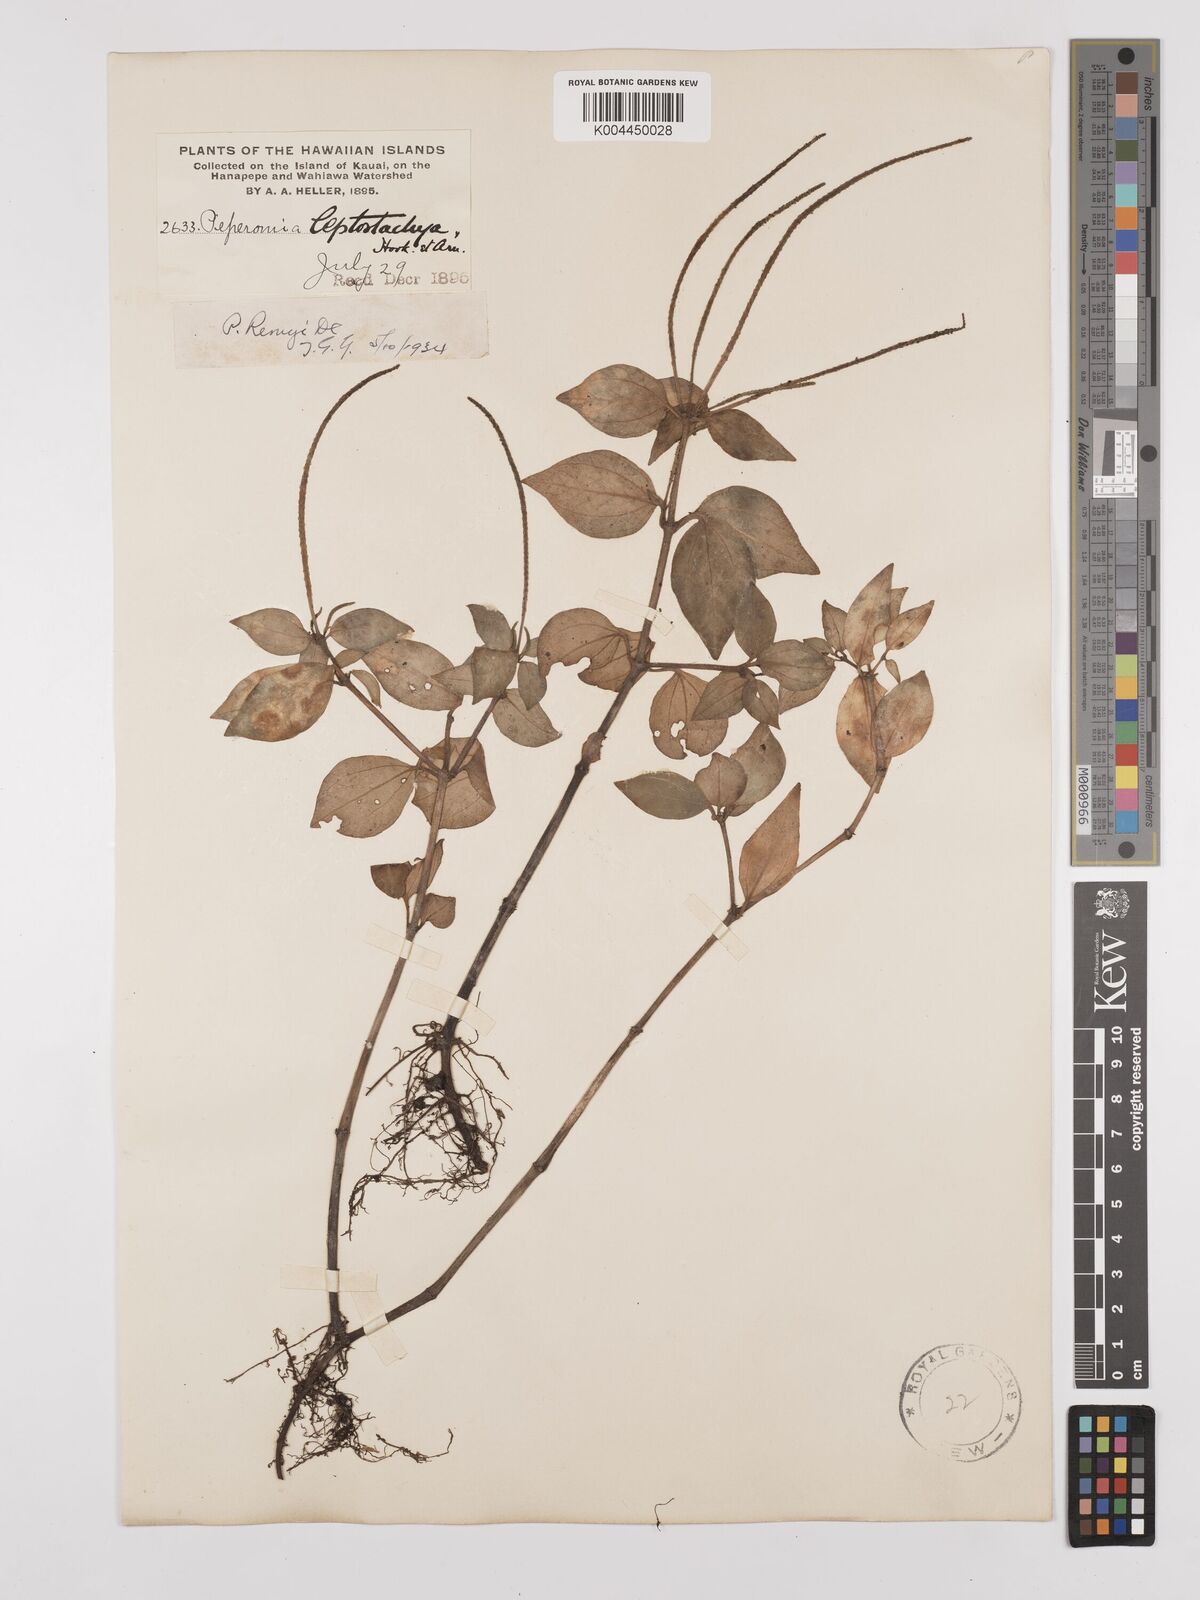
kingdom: Plantae
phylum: Tracheophyta
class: Magnoliopsida
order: Piperales
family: Piperaceae
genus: Peperomia
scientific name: Peperomia remyi
